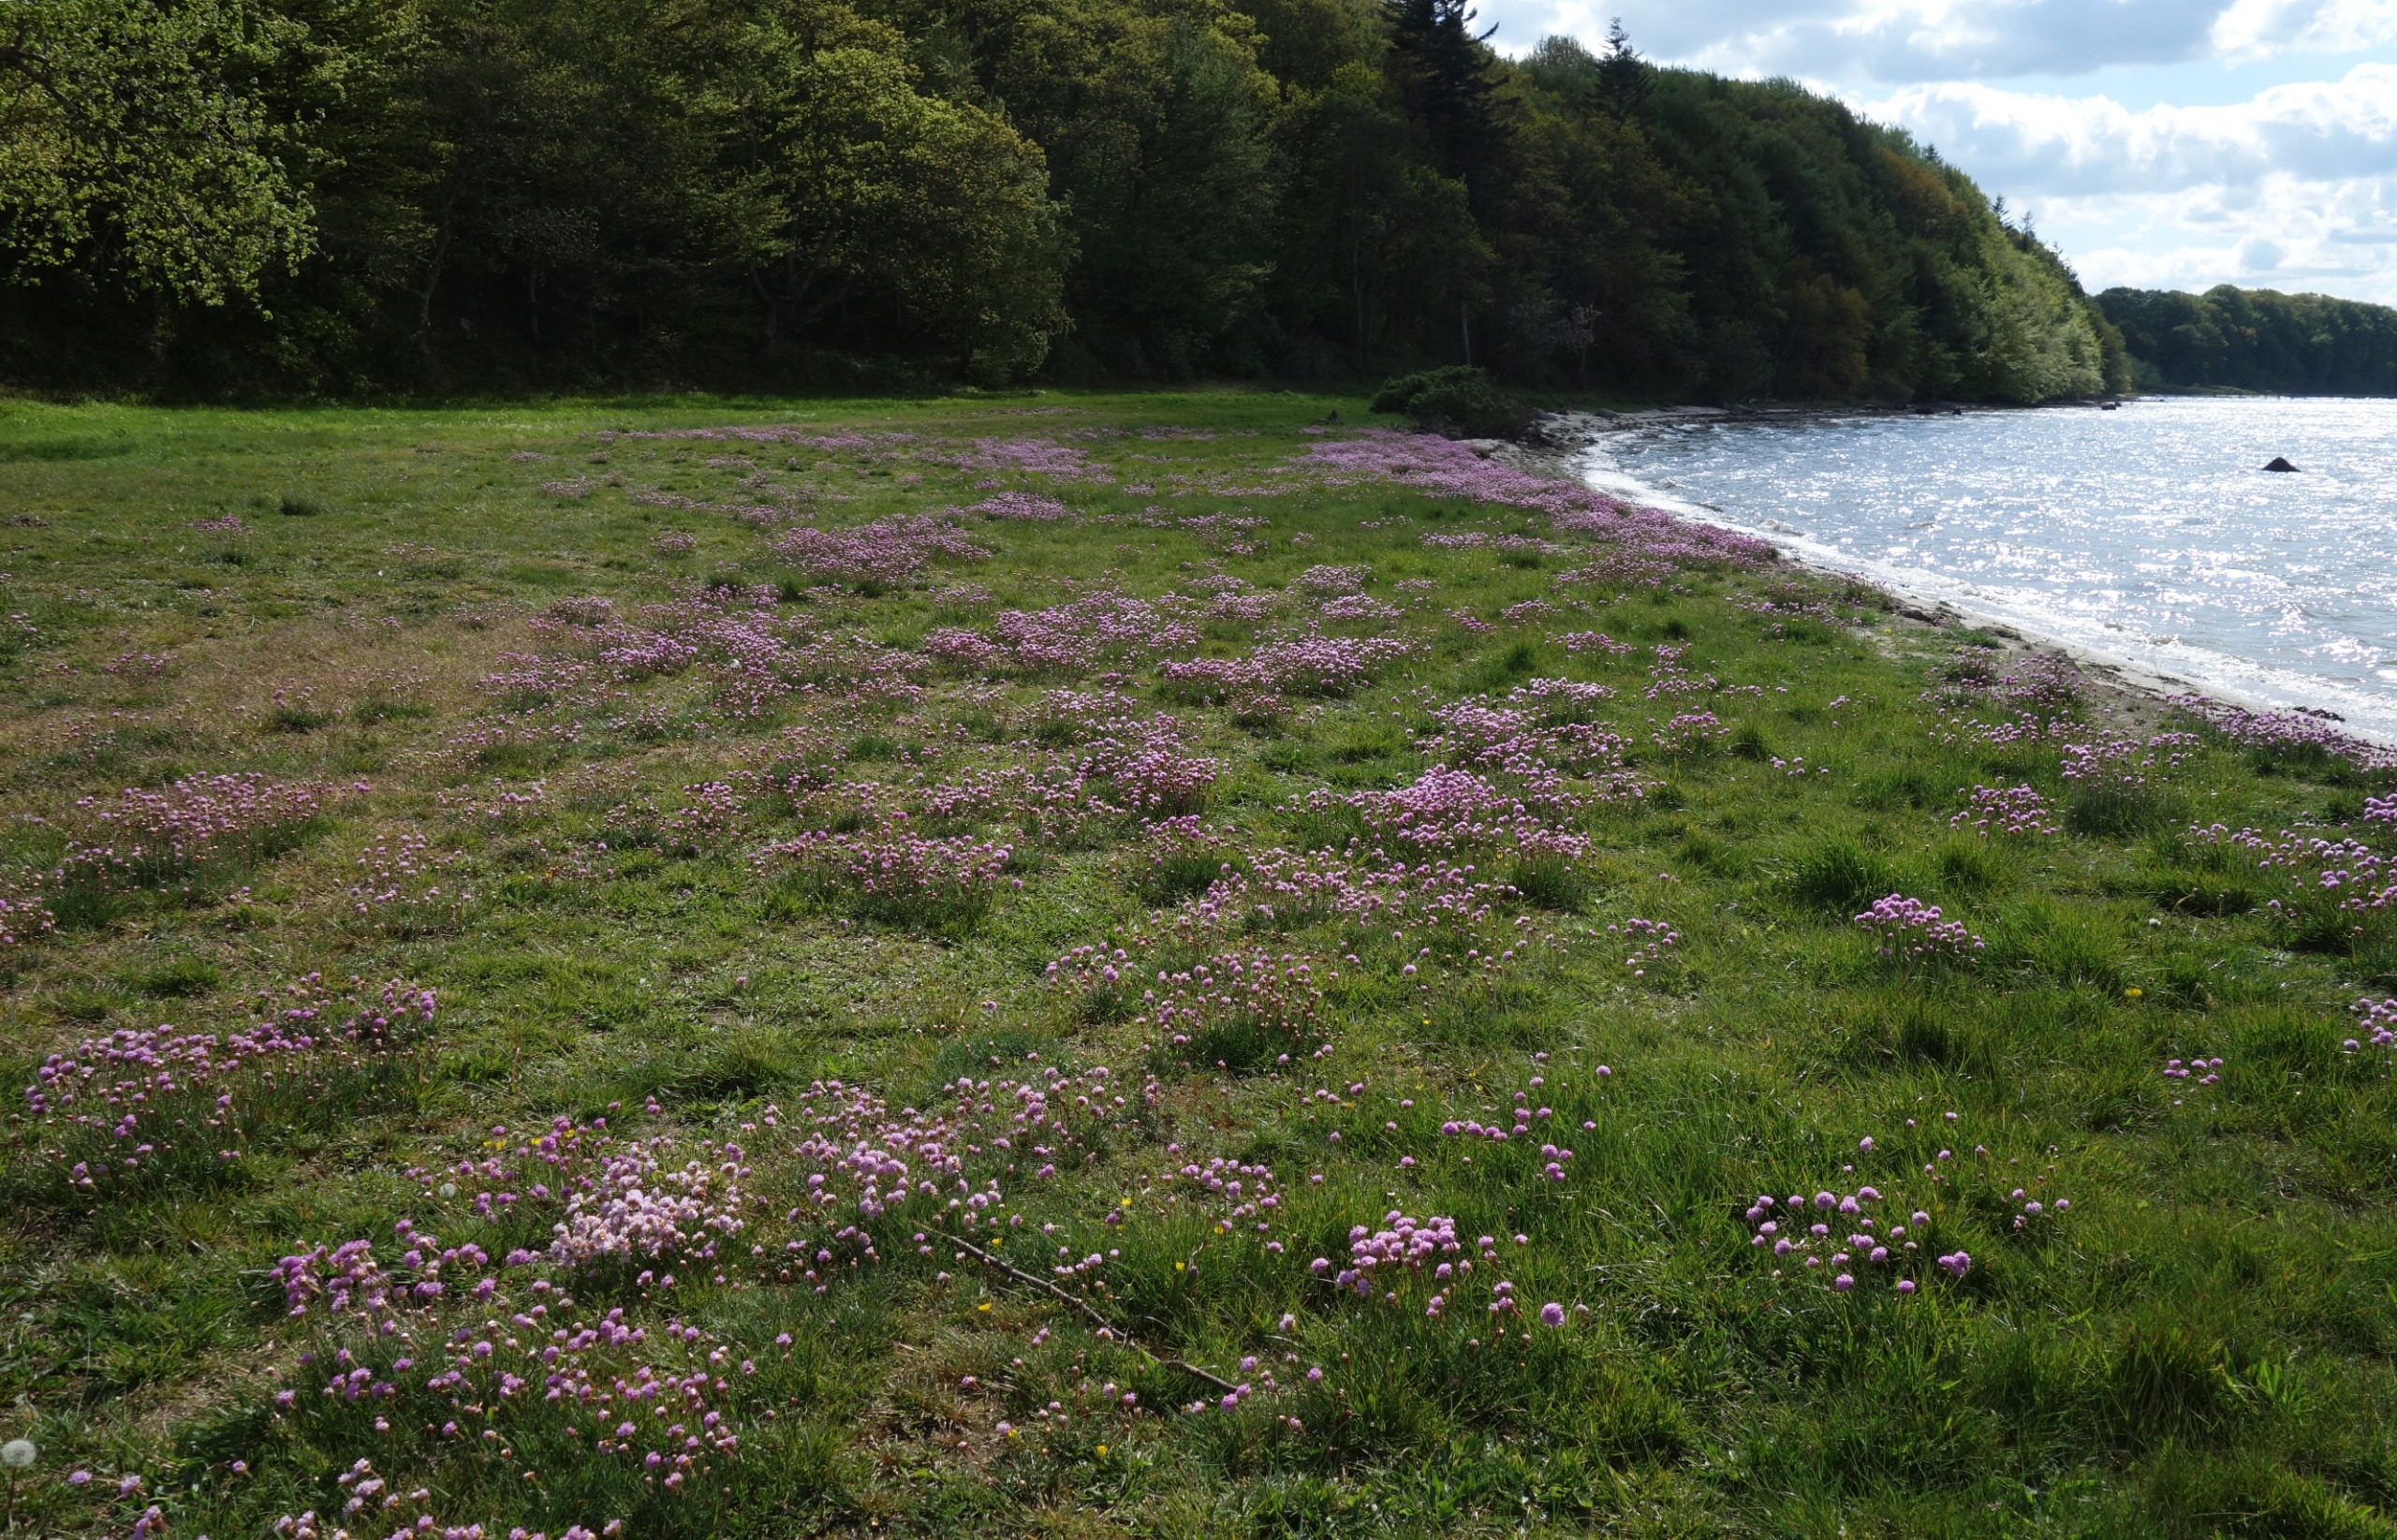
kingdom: Plantae
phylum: Tracheophyta
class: Magnoliopsida
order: Caryophyllales
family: Plumbaginaceae
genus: Armeria
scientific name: Armeria maritima
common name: Engelskgræs
